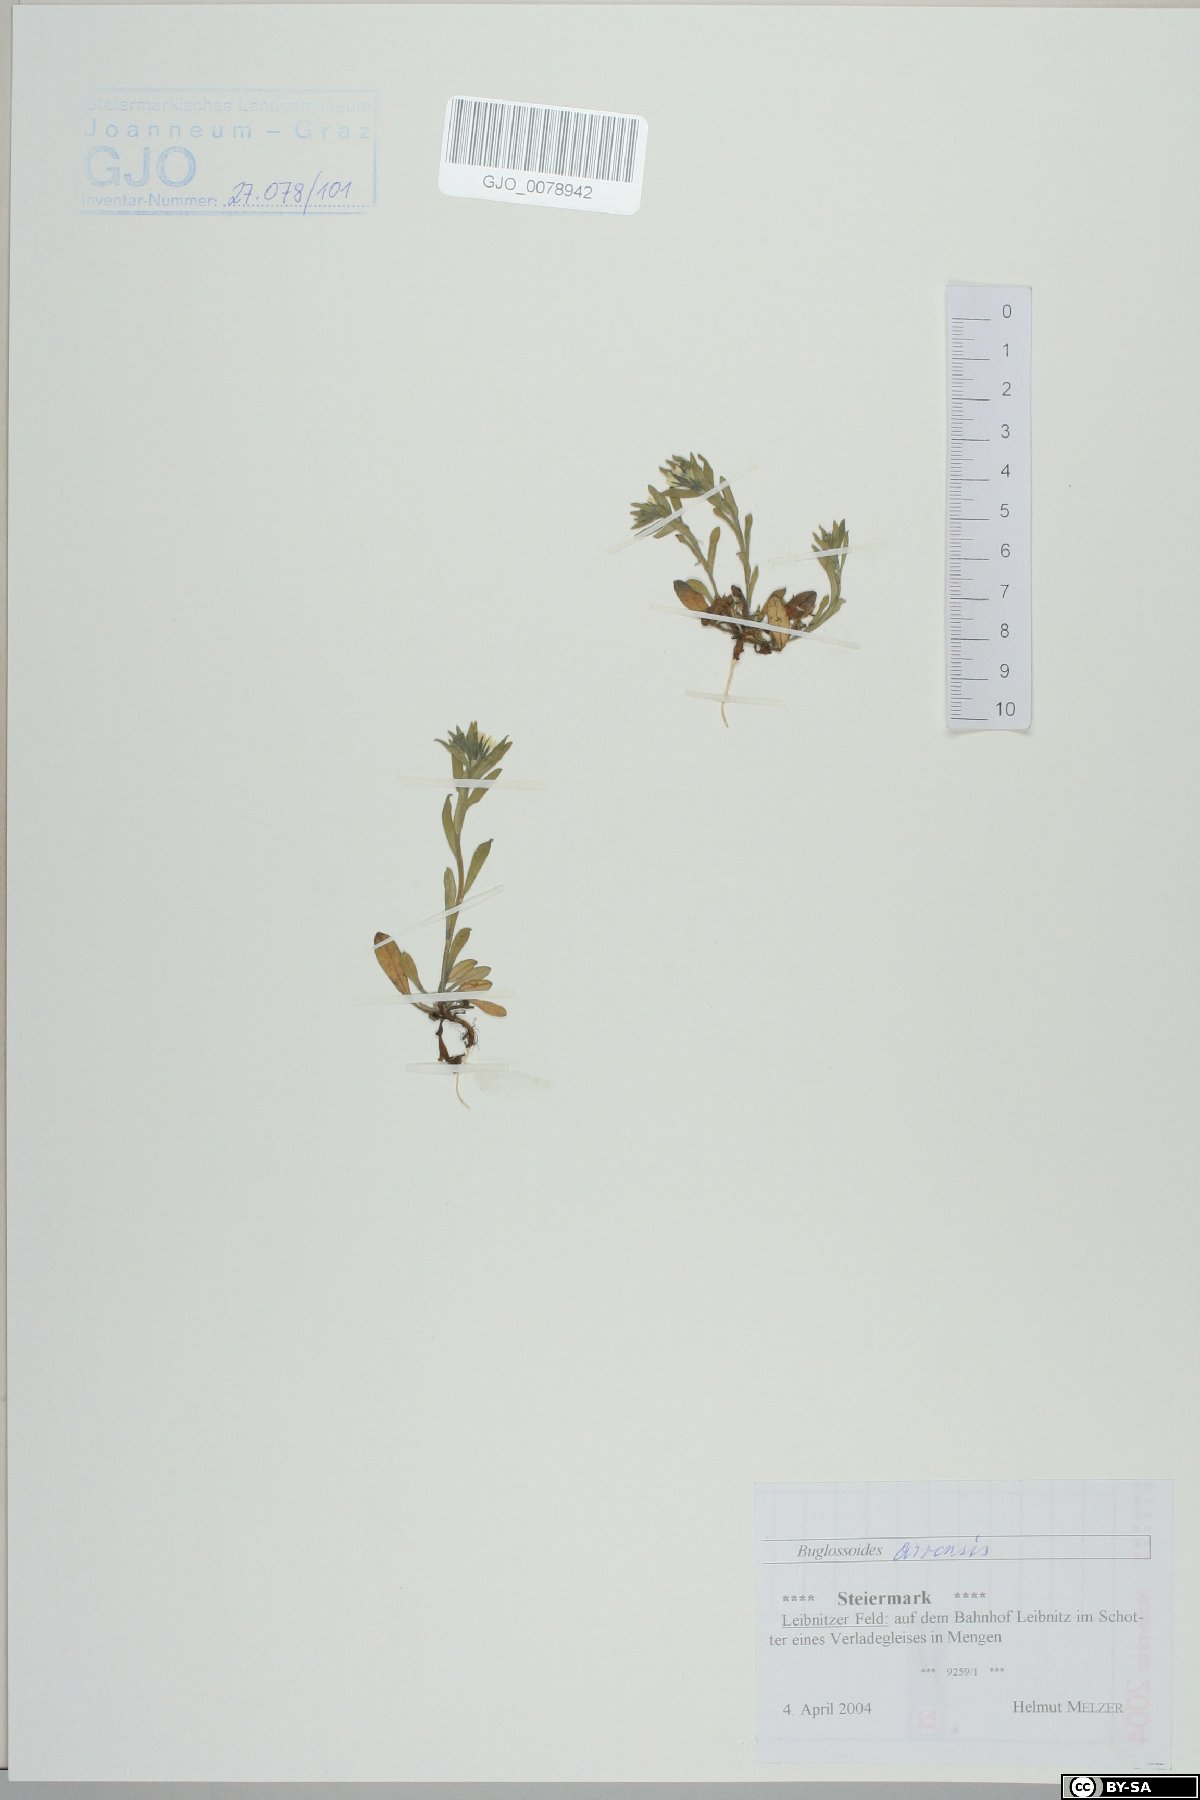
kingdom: Plantae
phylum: Tracheophyta
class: Magnoliopsida
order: Boraginales
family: Boraginaceae
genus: Buglossoides
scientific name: Buglossoides arvensis
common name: Corn gromwell
